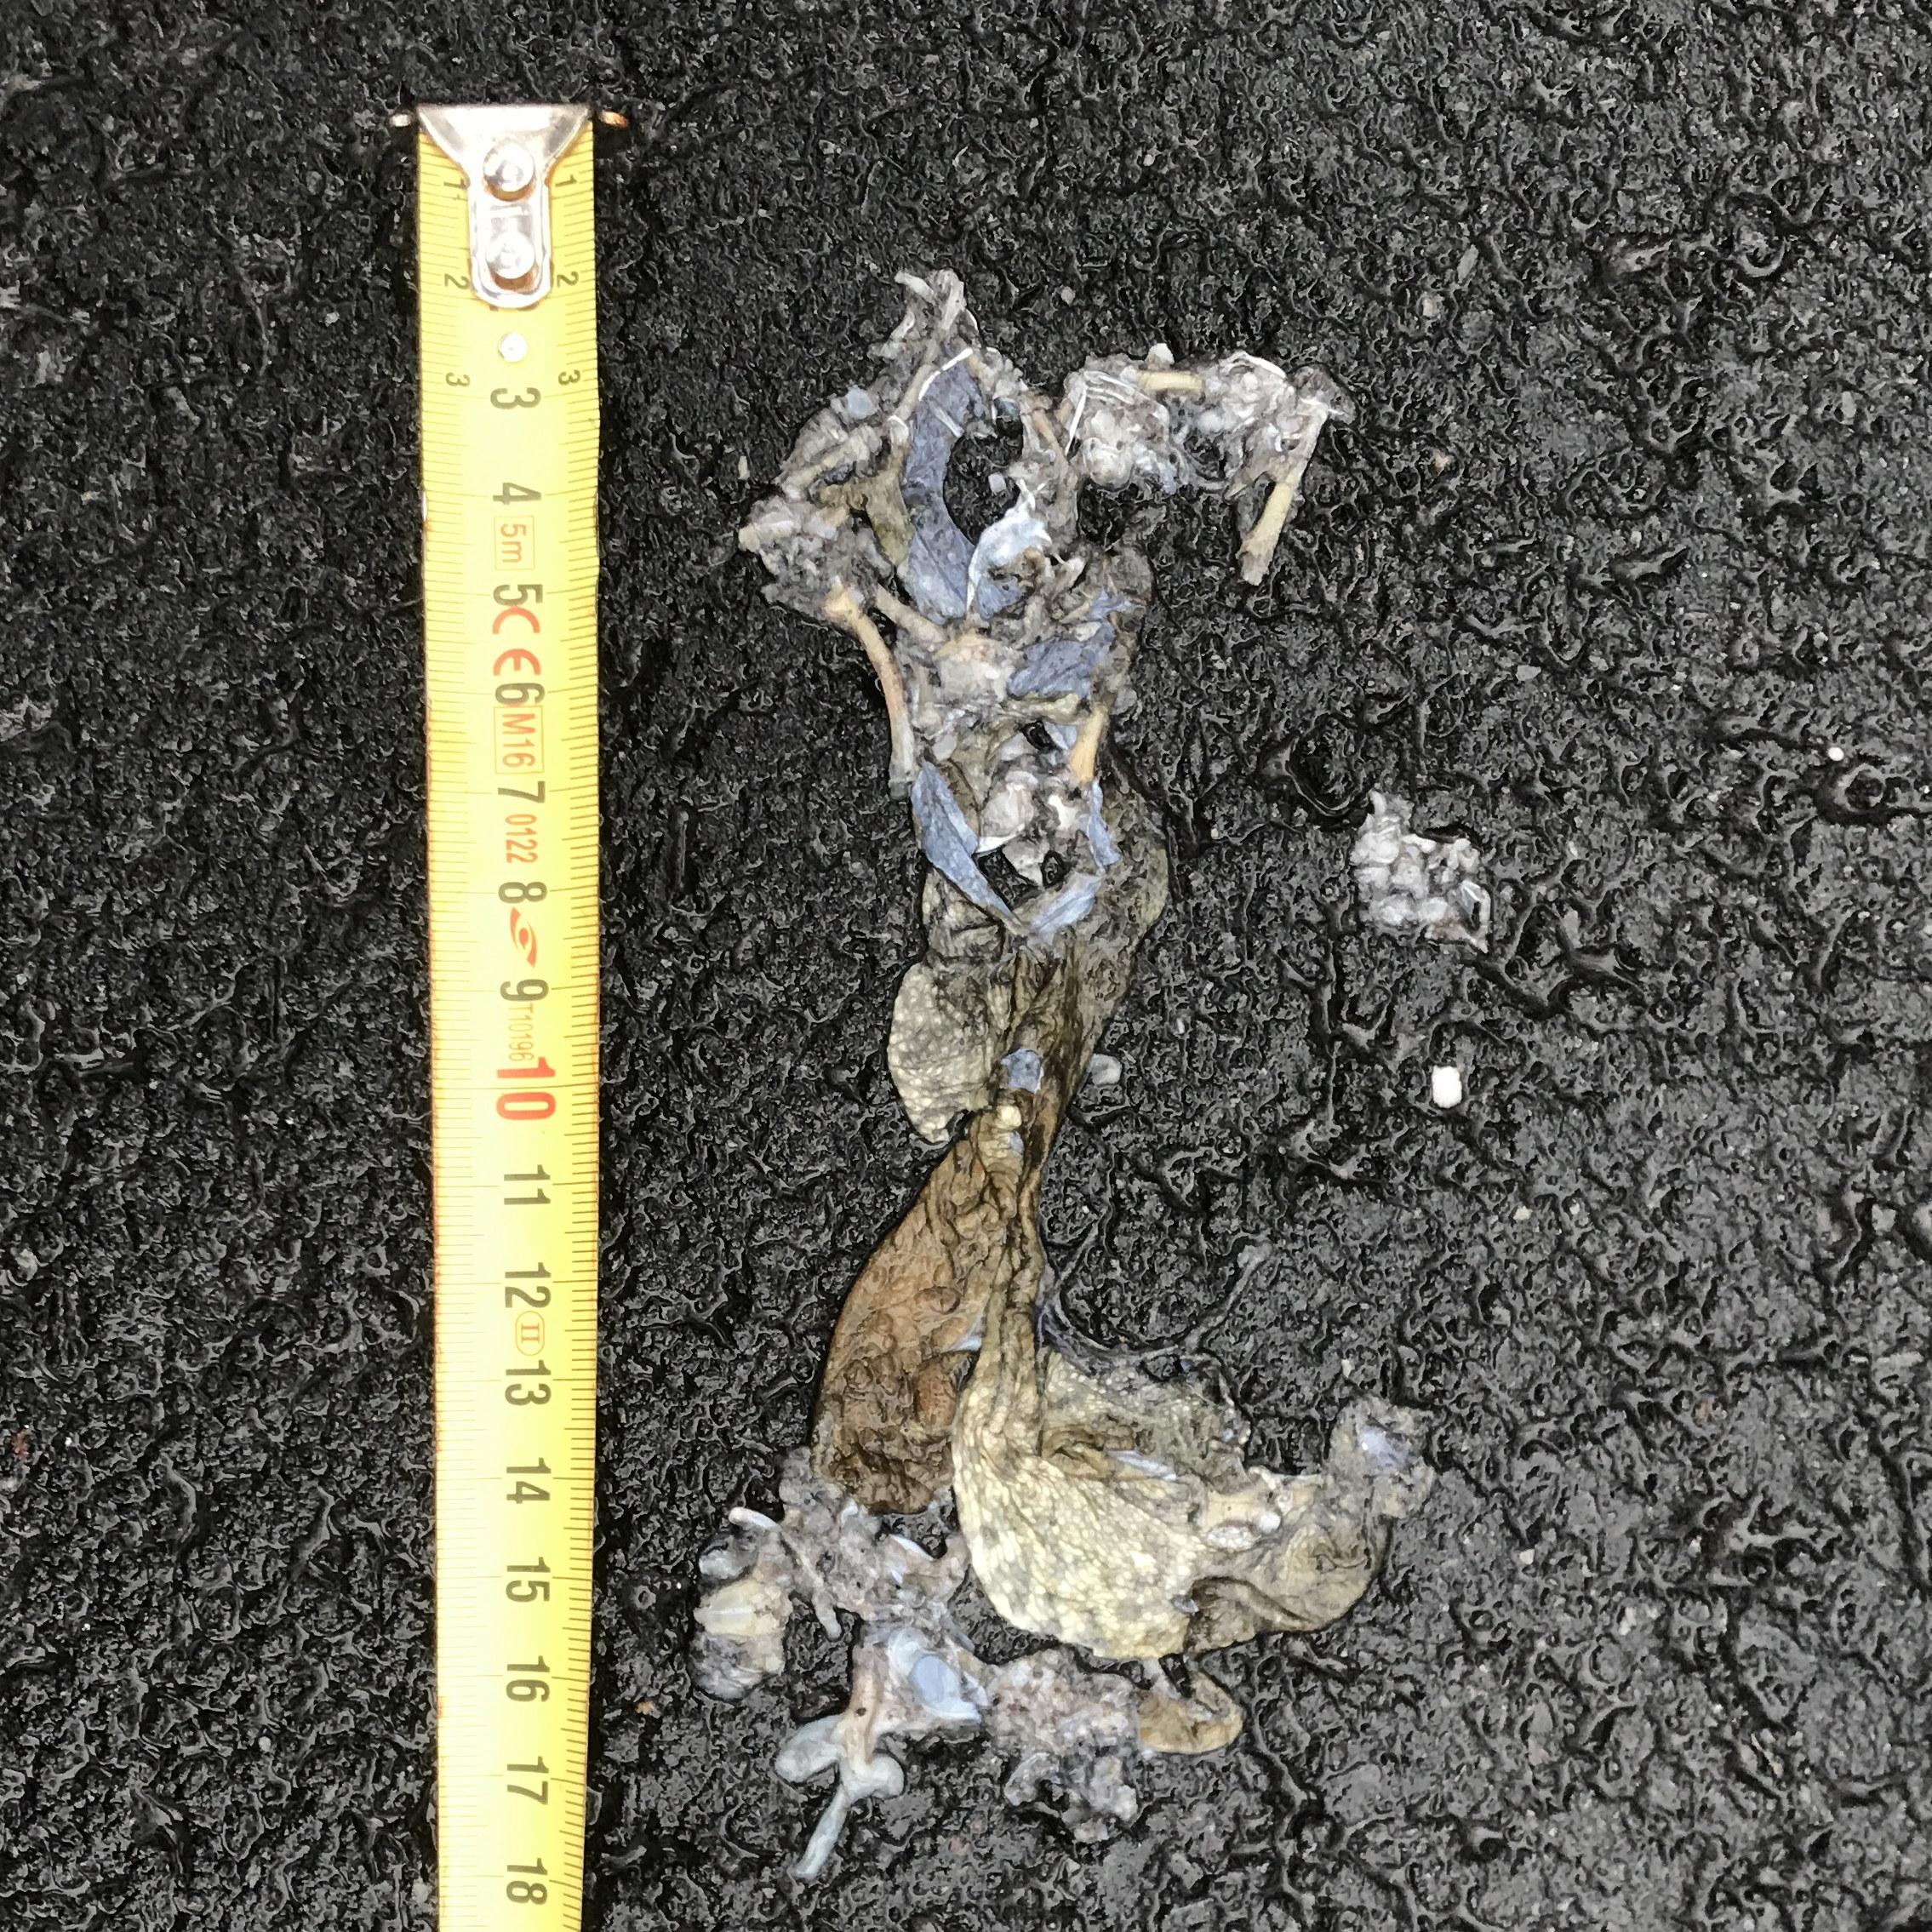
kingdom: Animalia
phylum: Chordata
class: Amphibia
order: Anura
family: Bufonidae
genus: Bufo
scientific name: Bufo bufo
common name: Common toad
